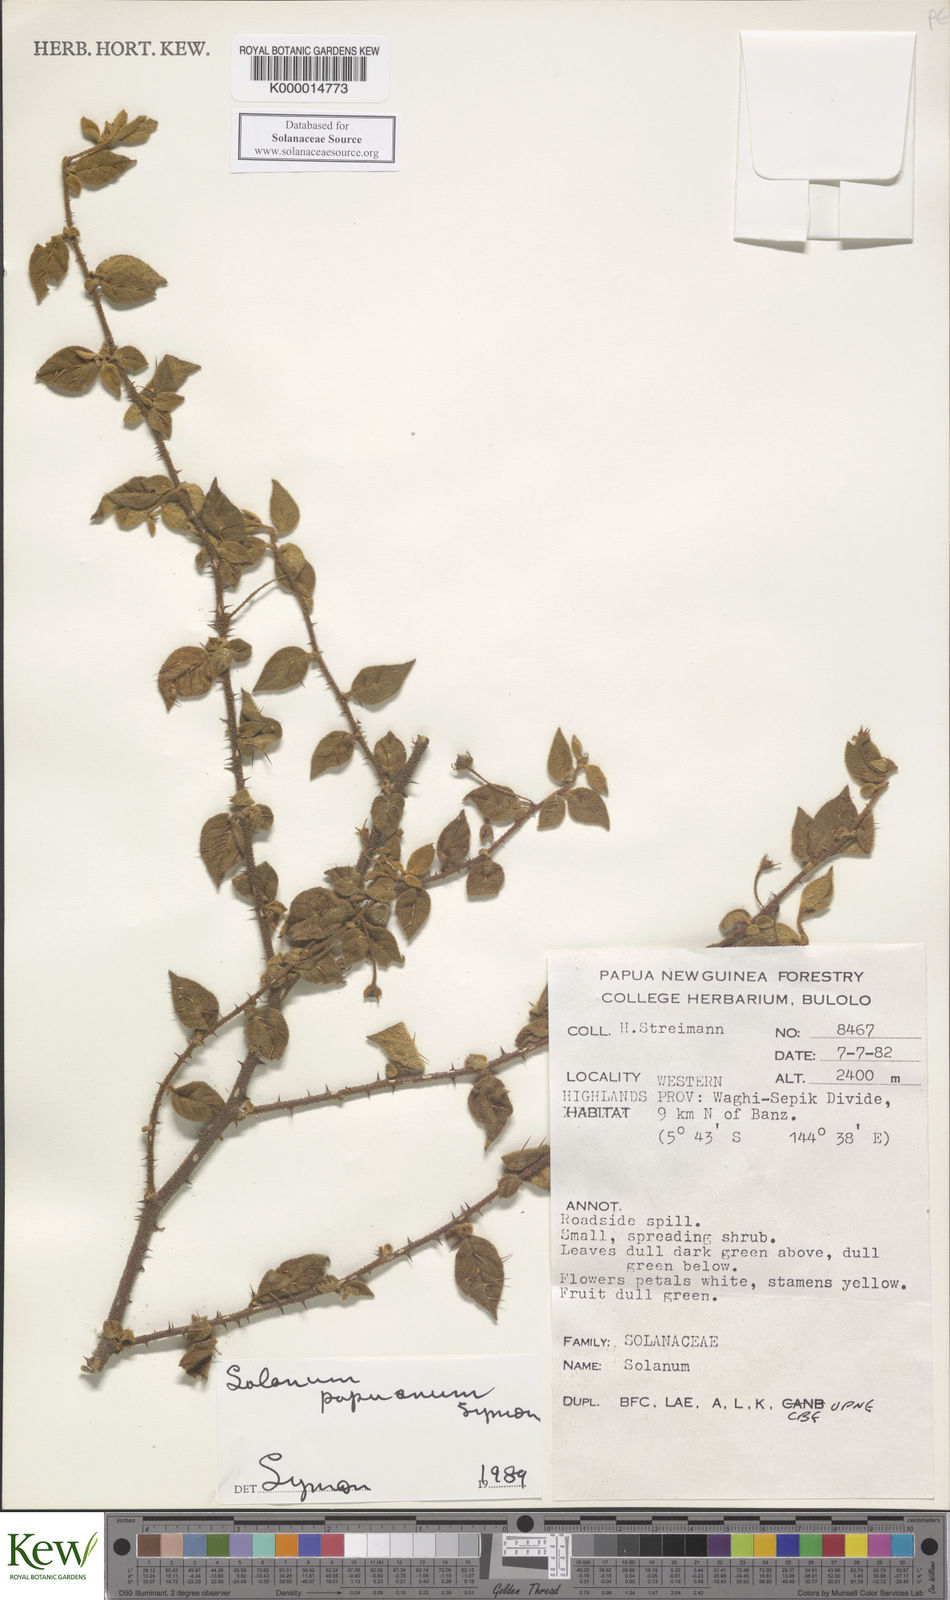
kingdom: Plantae
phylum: Tracheophyta
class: Magnoliopsida
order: Solanales
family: Solanaceae
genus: Solanum
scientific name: Solanum banzicum
